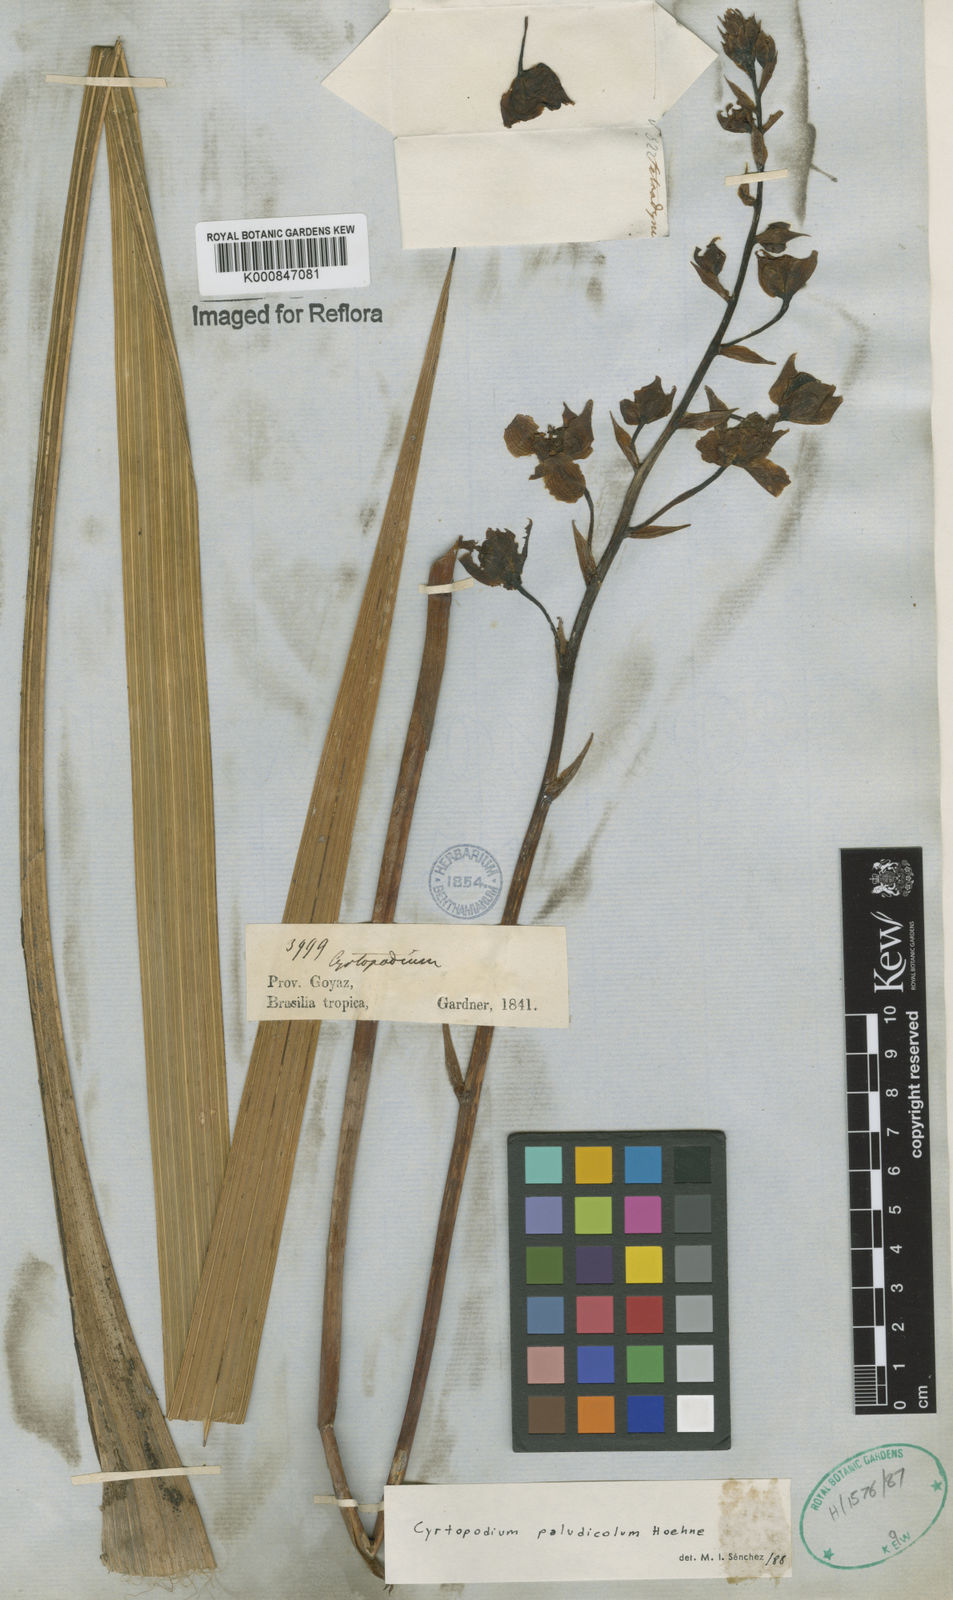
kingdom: Plantae
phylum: Tracheophyta
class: Liliopsida
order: Asparagales
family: Orchidaceae
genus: Cyrtopodium
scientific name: Cyrtopodium paludicola
